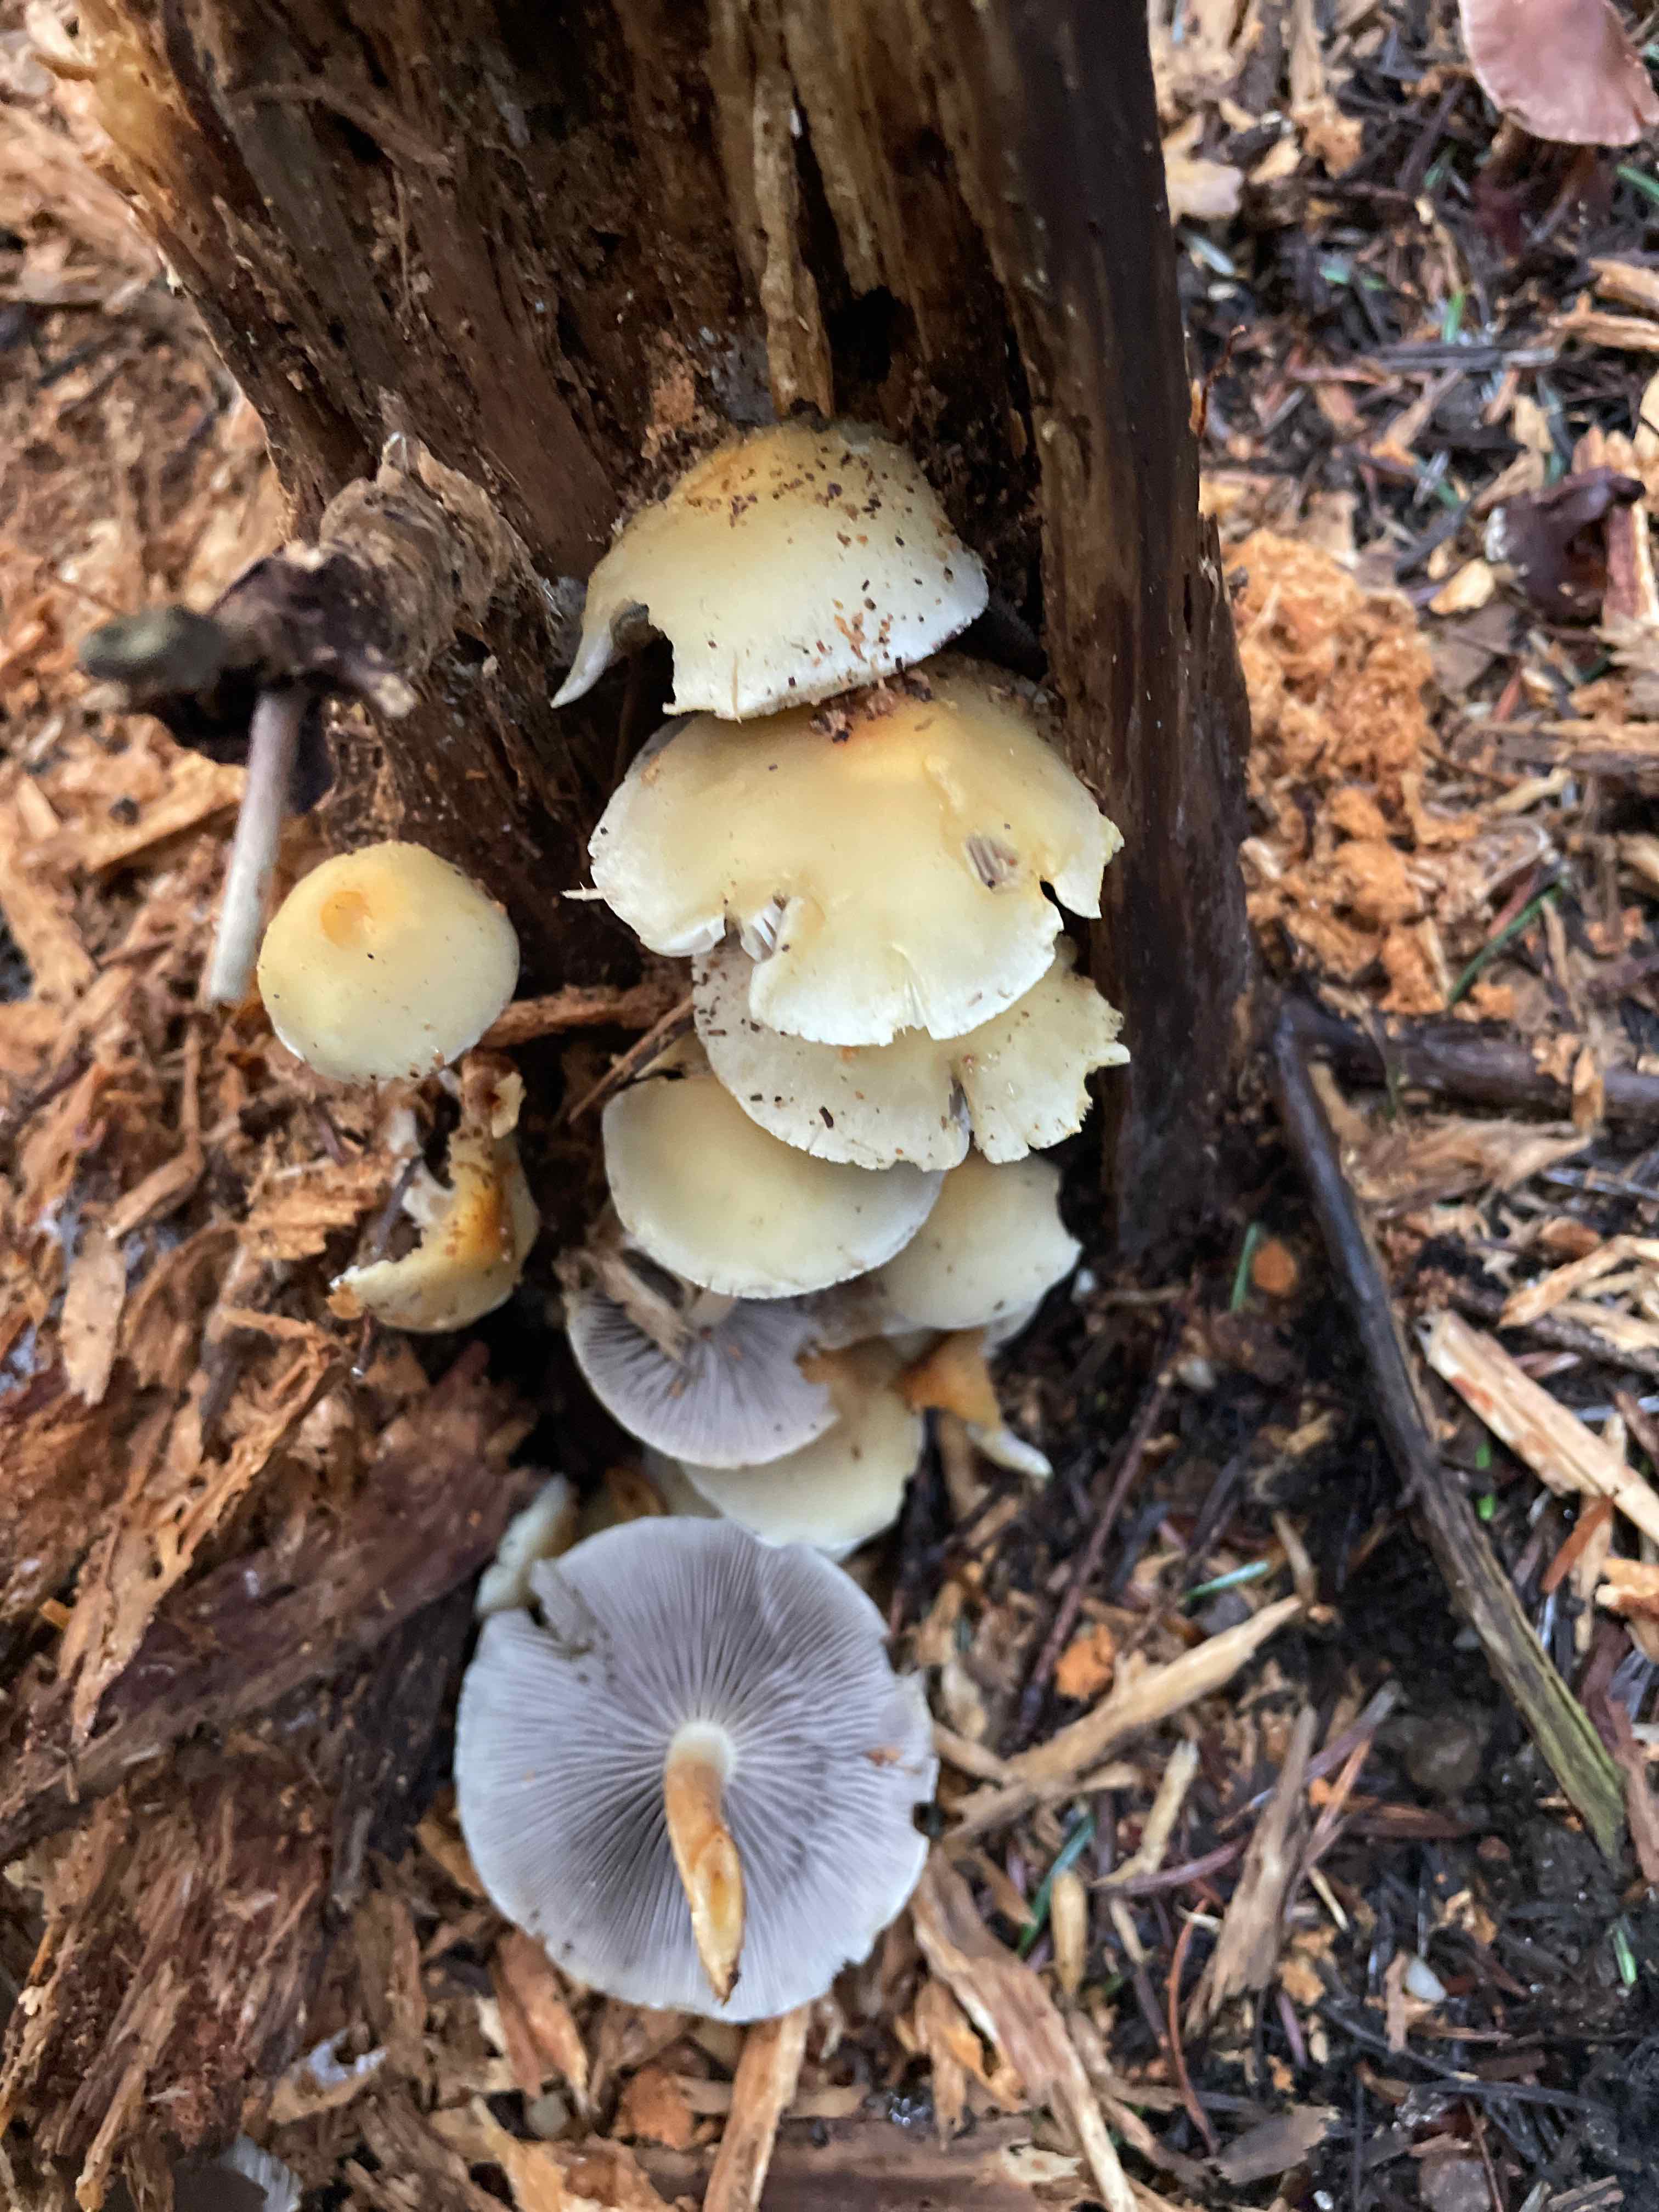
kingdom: Fungi
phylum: Basidiomycota
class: Agaricomycetes
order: Agaricales
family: Strophariaceae
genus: Hypholoma
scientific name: Hypholoma capnoides
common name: gran-svovlhat
